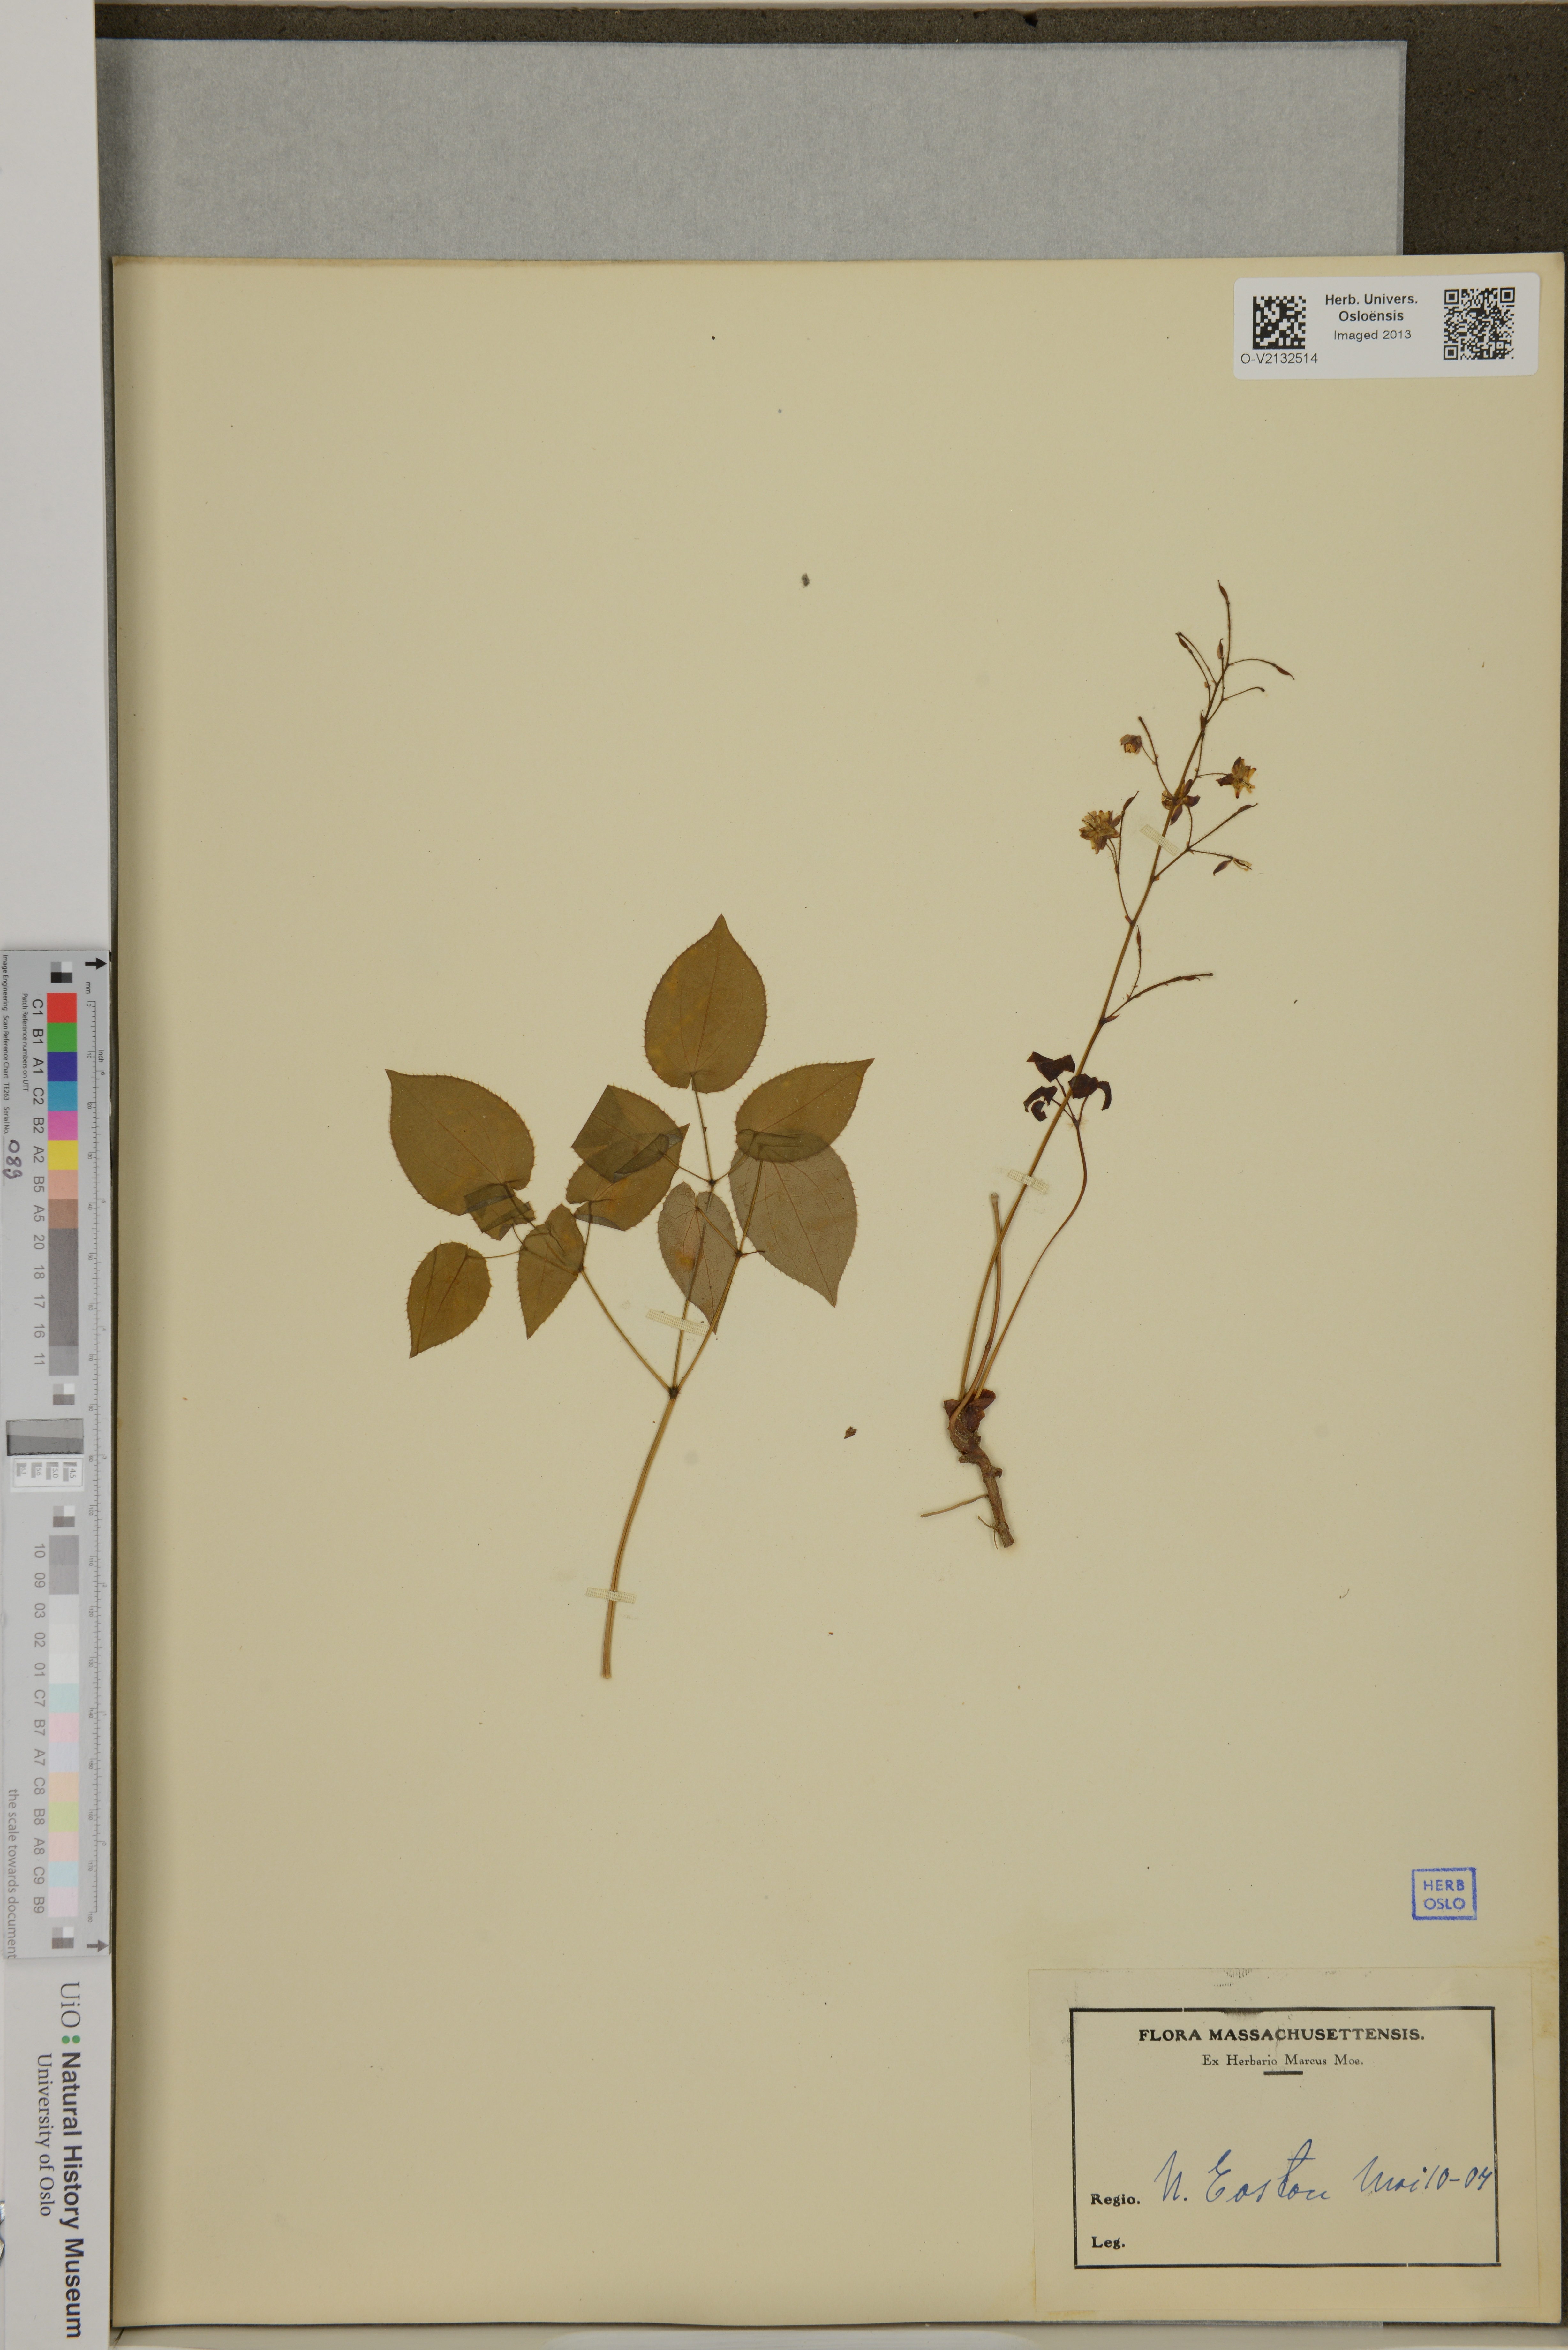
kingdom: Plantae
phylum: Tracheophyta
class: Magnoliopsida
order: Ranunculales
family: Berberidaceae
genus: Epimedium
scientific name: Epimedium
